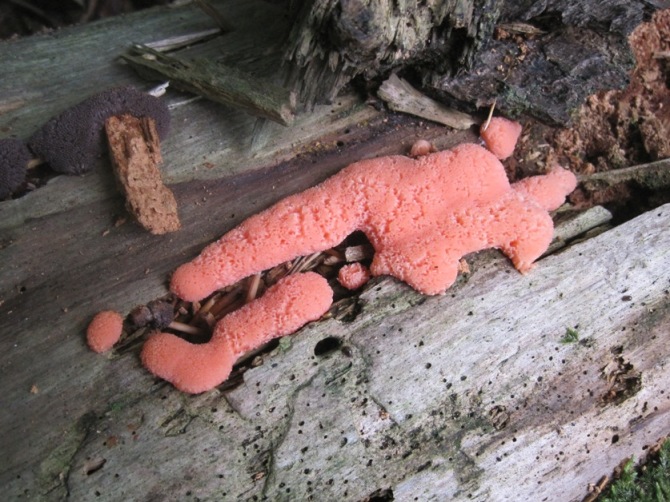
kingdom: Protozoa
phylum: Mycetozoa
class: Myxomycetes
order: Cribrariales
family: Tubiferaceae
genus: Tubifera
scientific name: Tubifera ferruginosa
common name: kanel-støvrør
